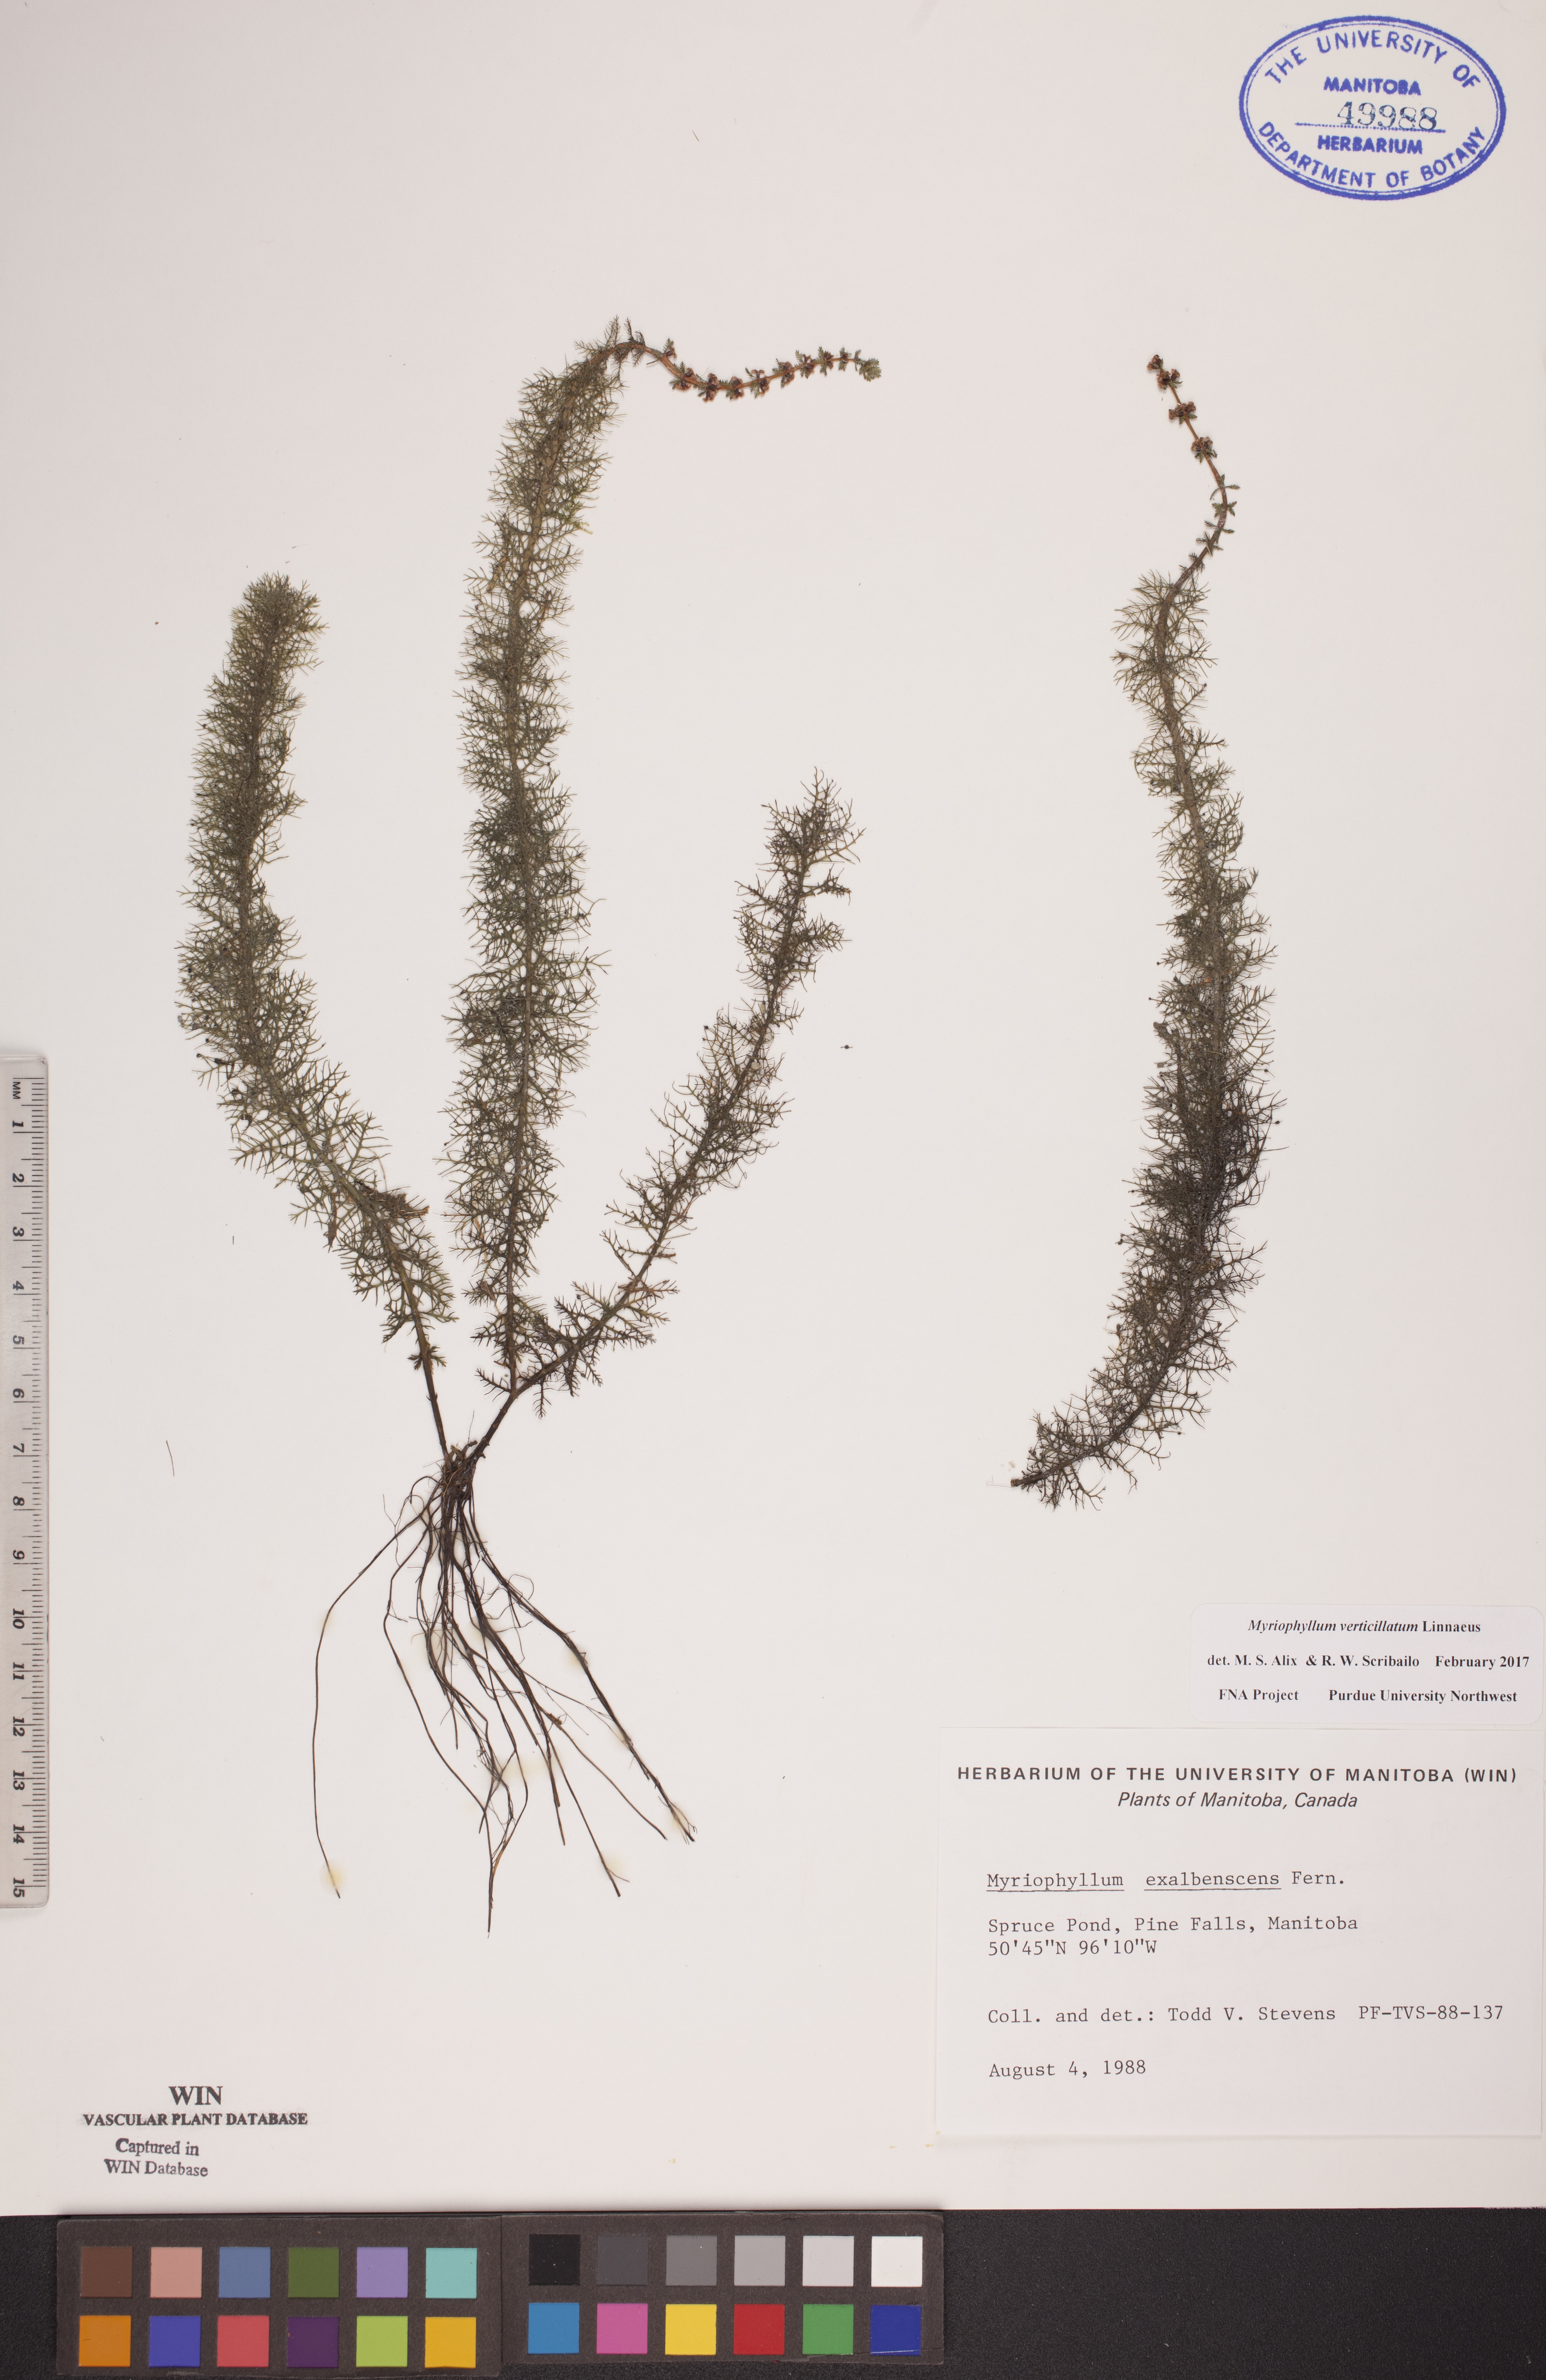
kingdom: Plantae
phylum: Tracheophyta
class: Magnoliopsida
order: Saxifragales
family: Haloragaceae
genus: Myriophyllum
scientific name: Myriophyllum verticillatum
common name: Whorled water-milfoil
